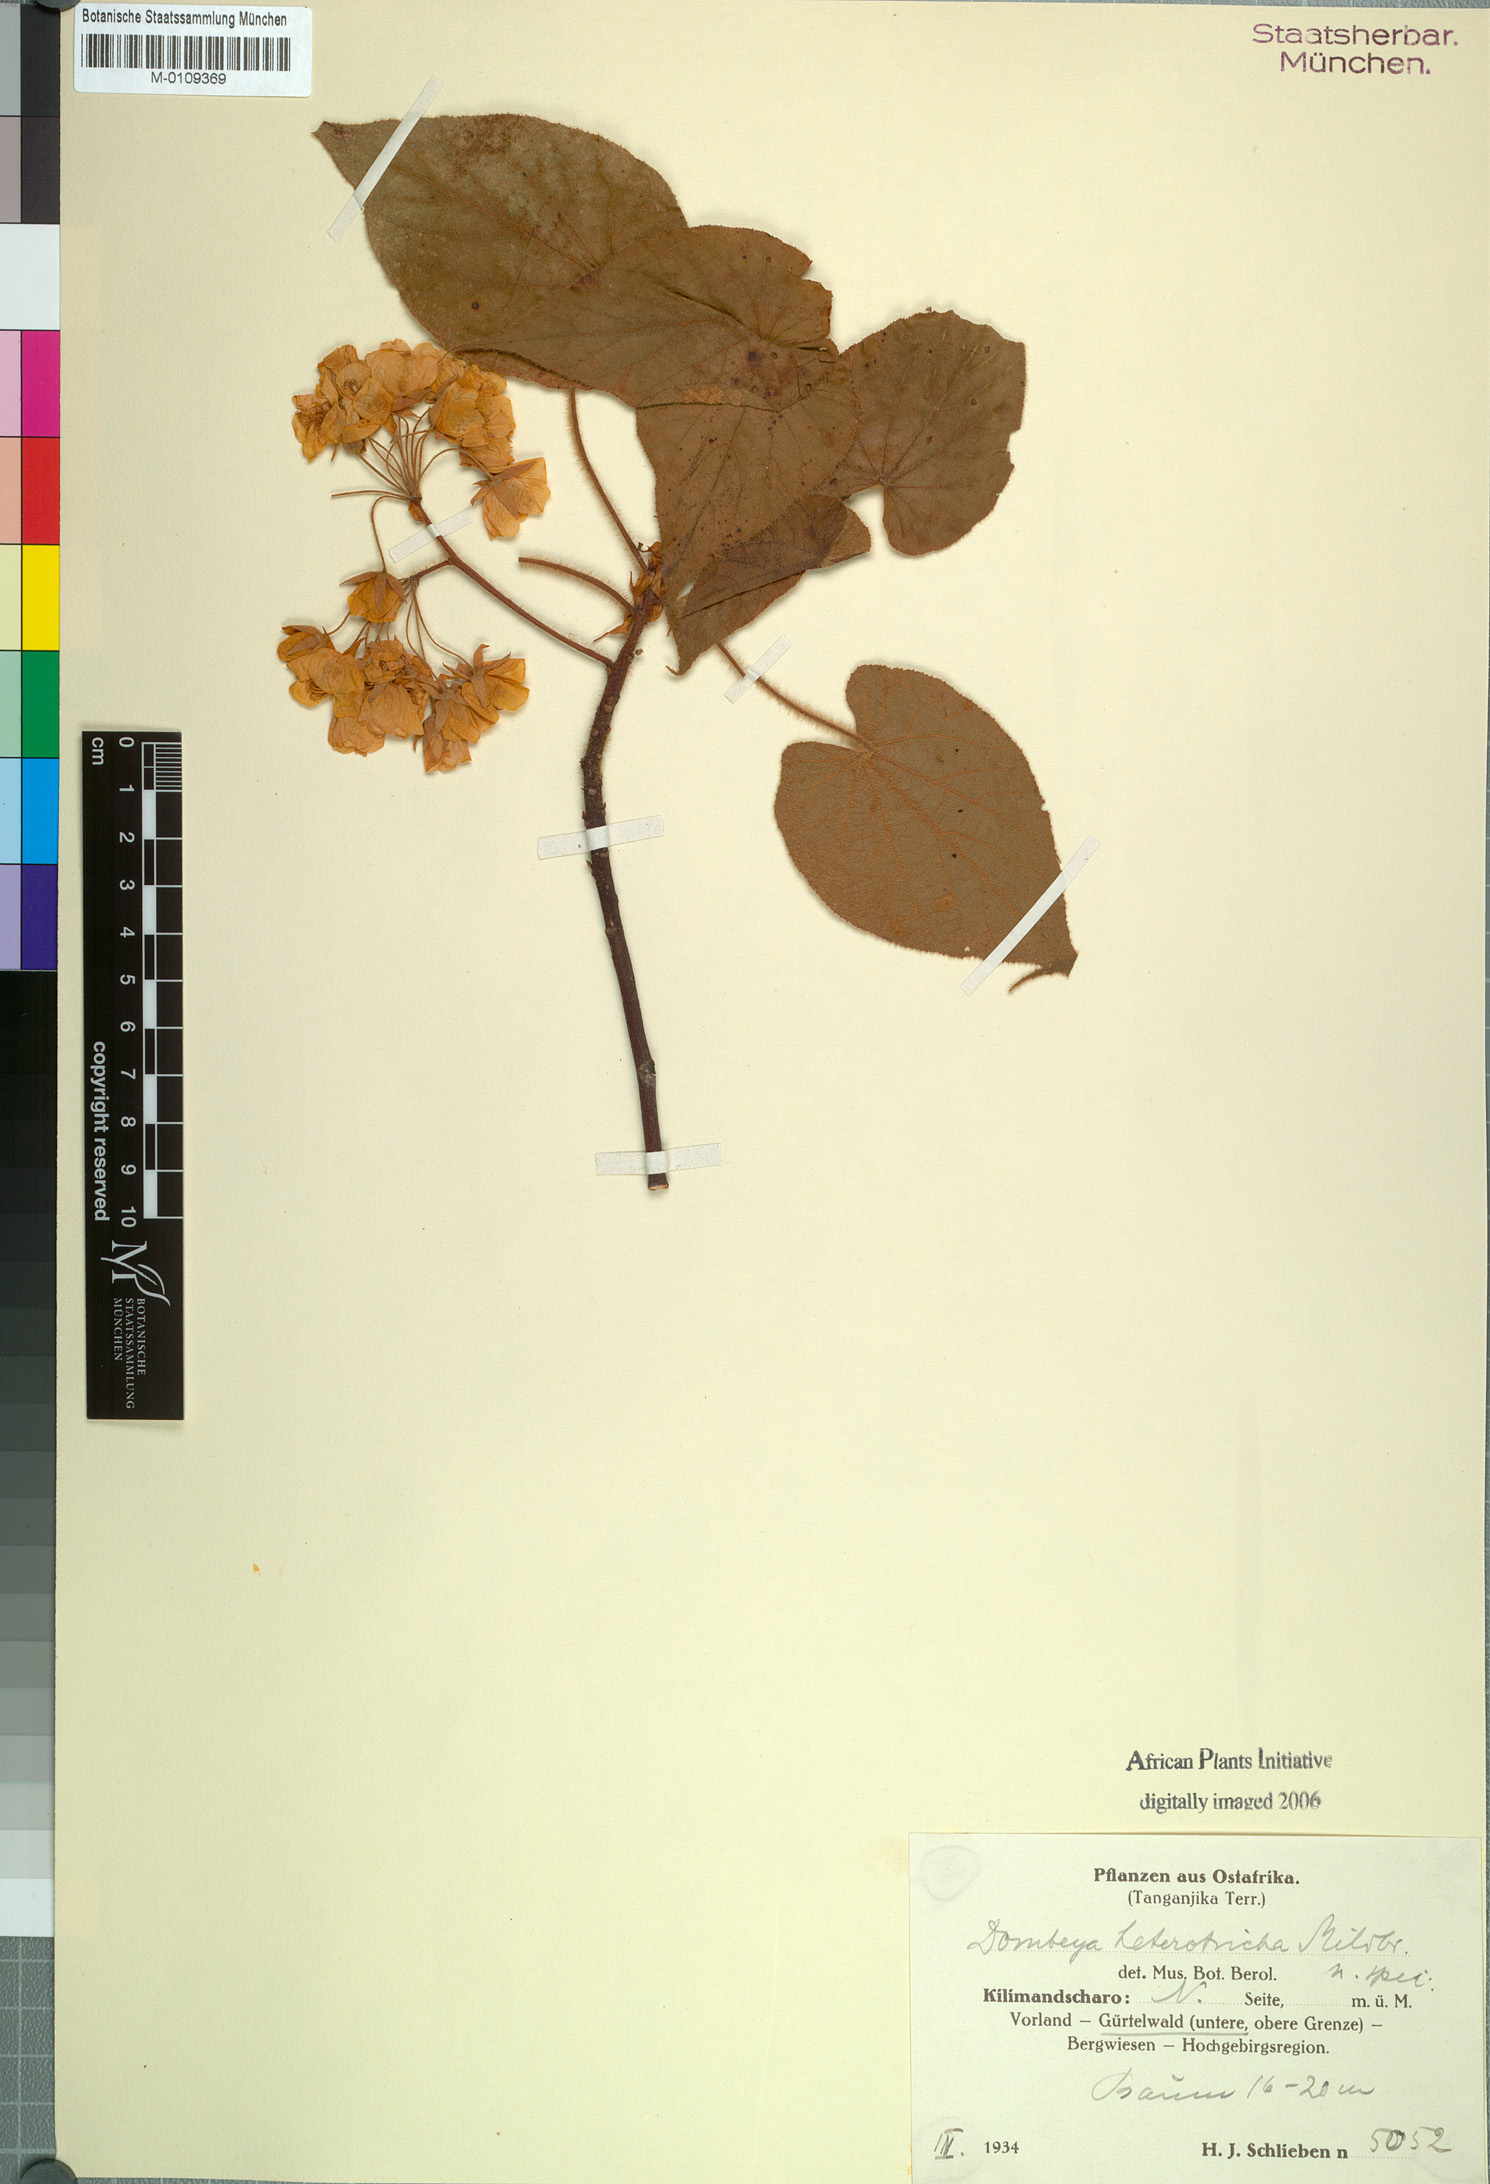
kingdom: Plantae
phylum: Tracheophyta
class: Magnoliopsida
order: Malvales
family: Malvaceae
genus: Dombeya
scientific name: Dombeya torrida
